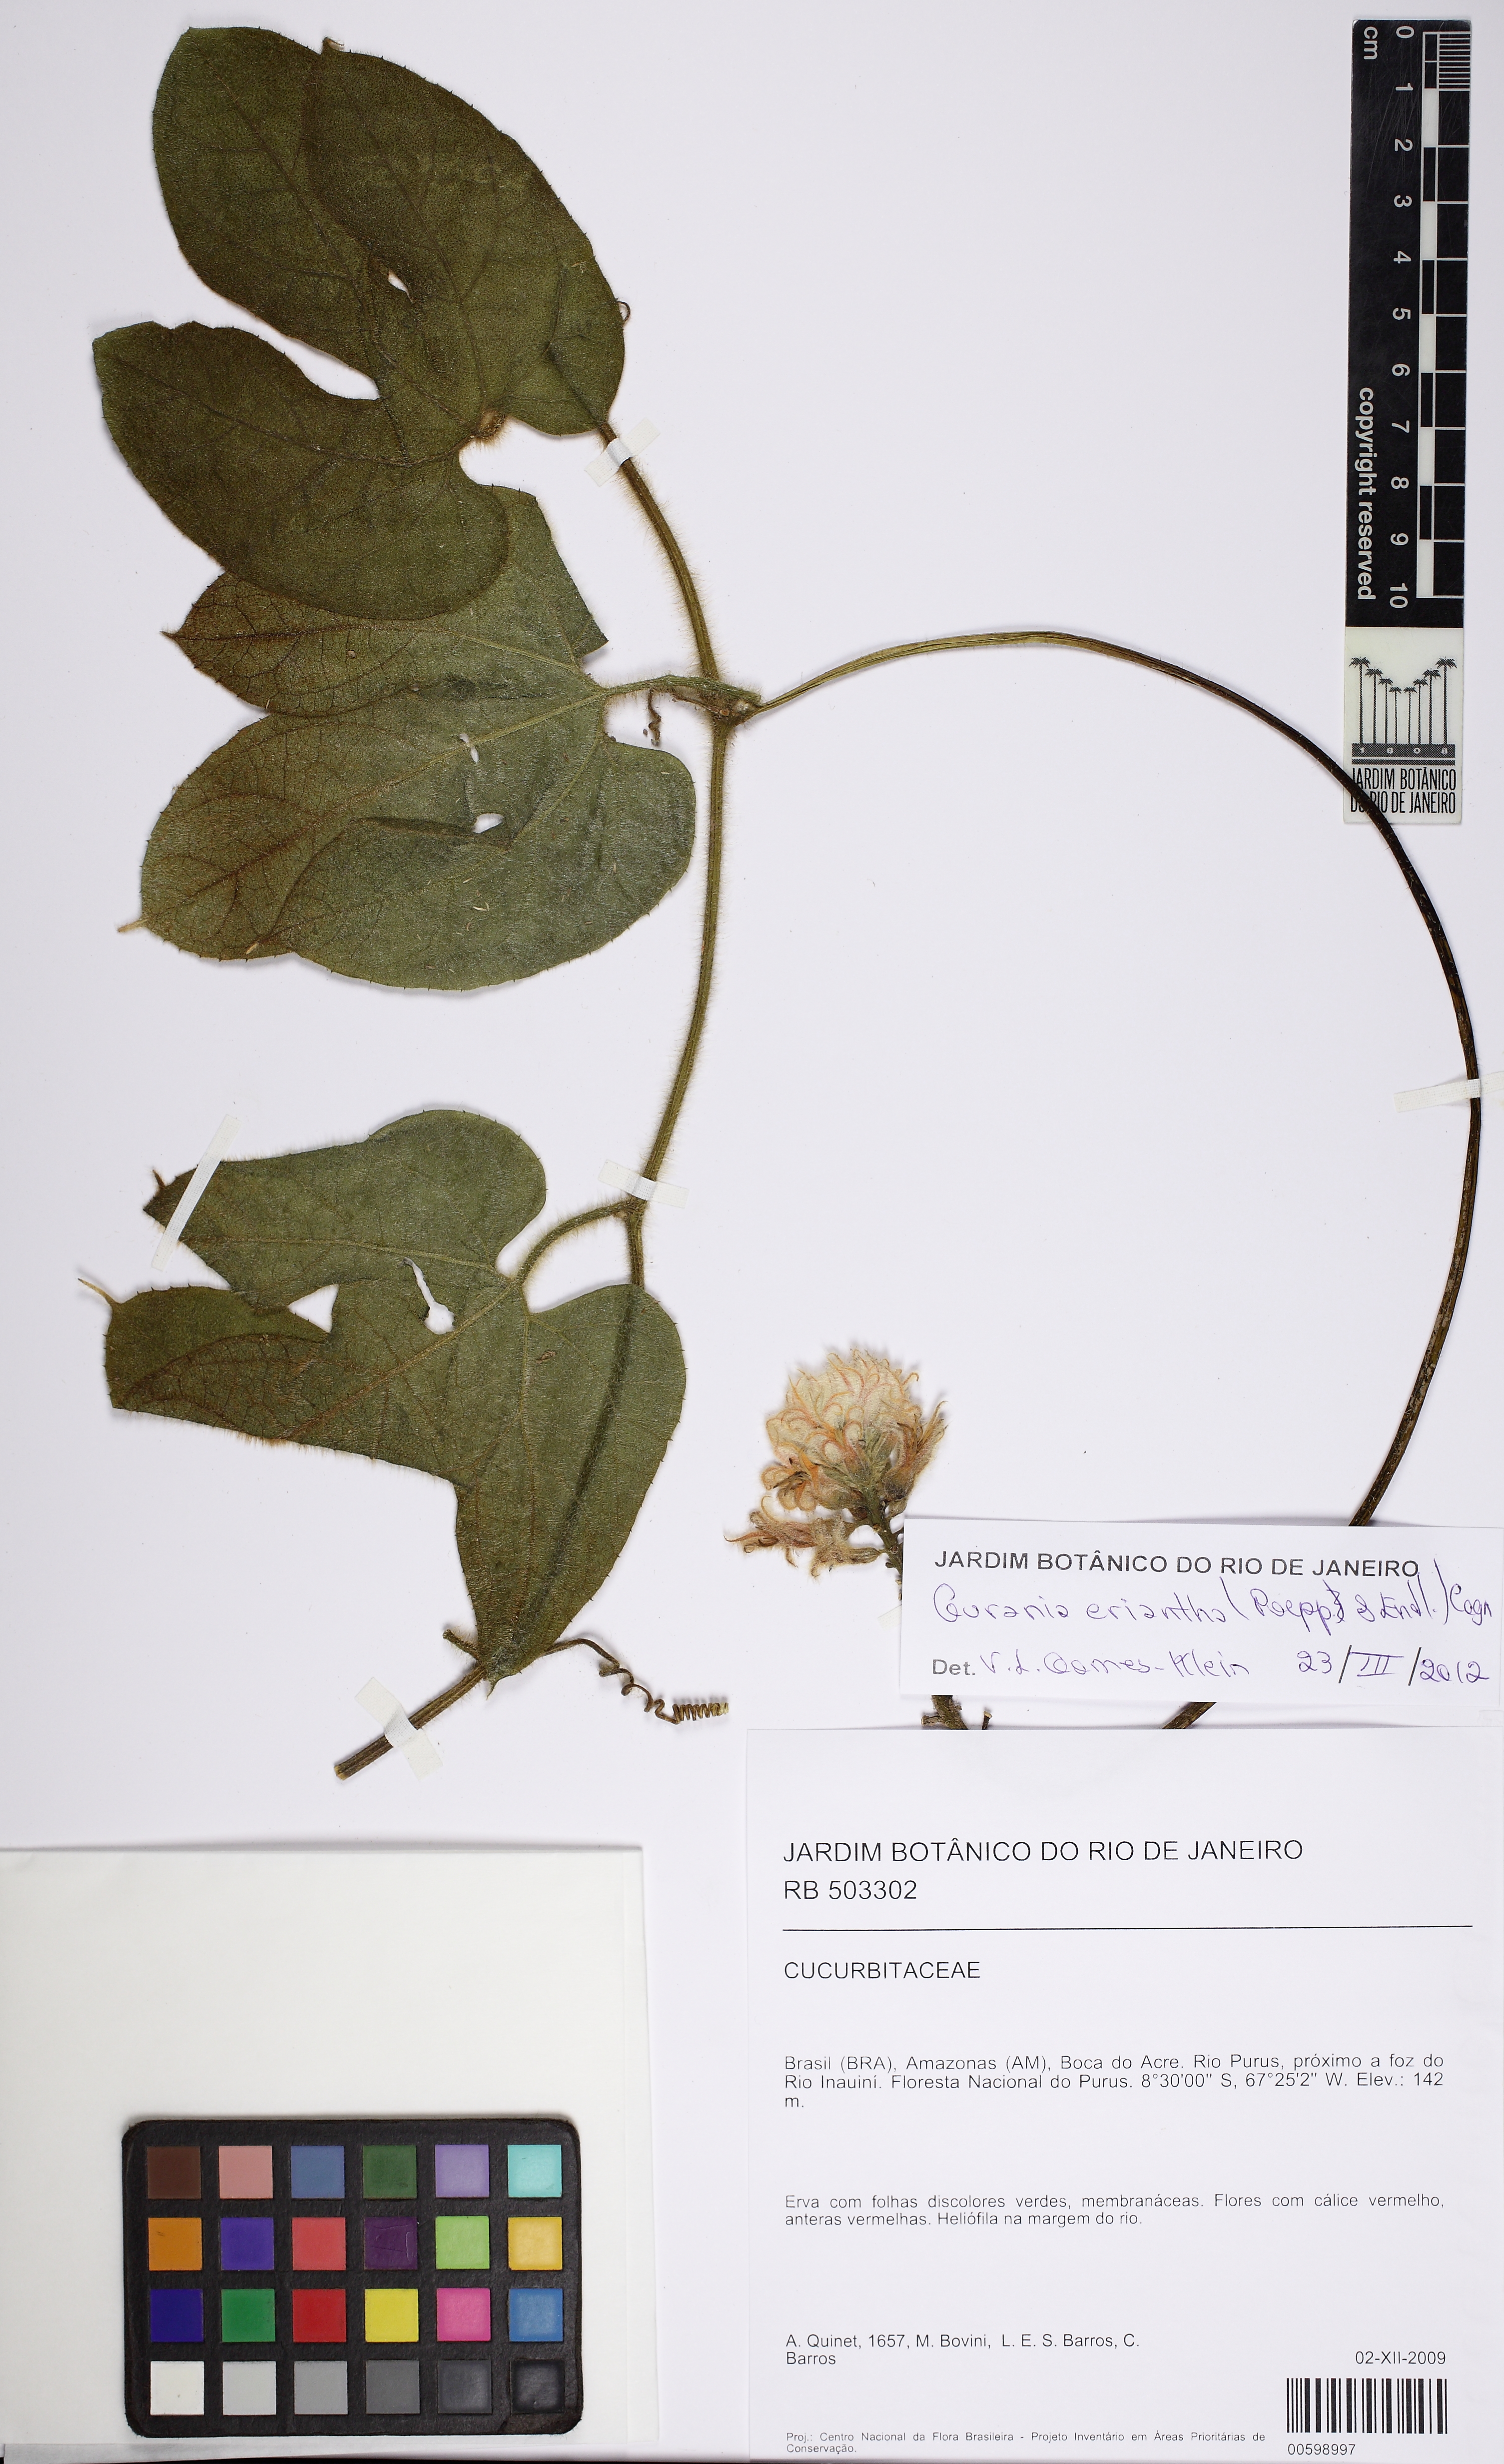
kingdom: Plantae
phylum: Tracheophyta
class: Magnoliopsida
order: Cucurbitales
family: Cucurbitaceae
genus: Gurania
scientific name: Gurania malacophylla
